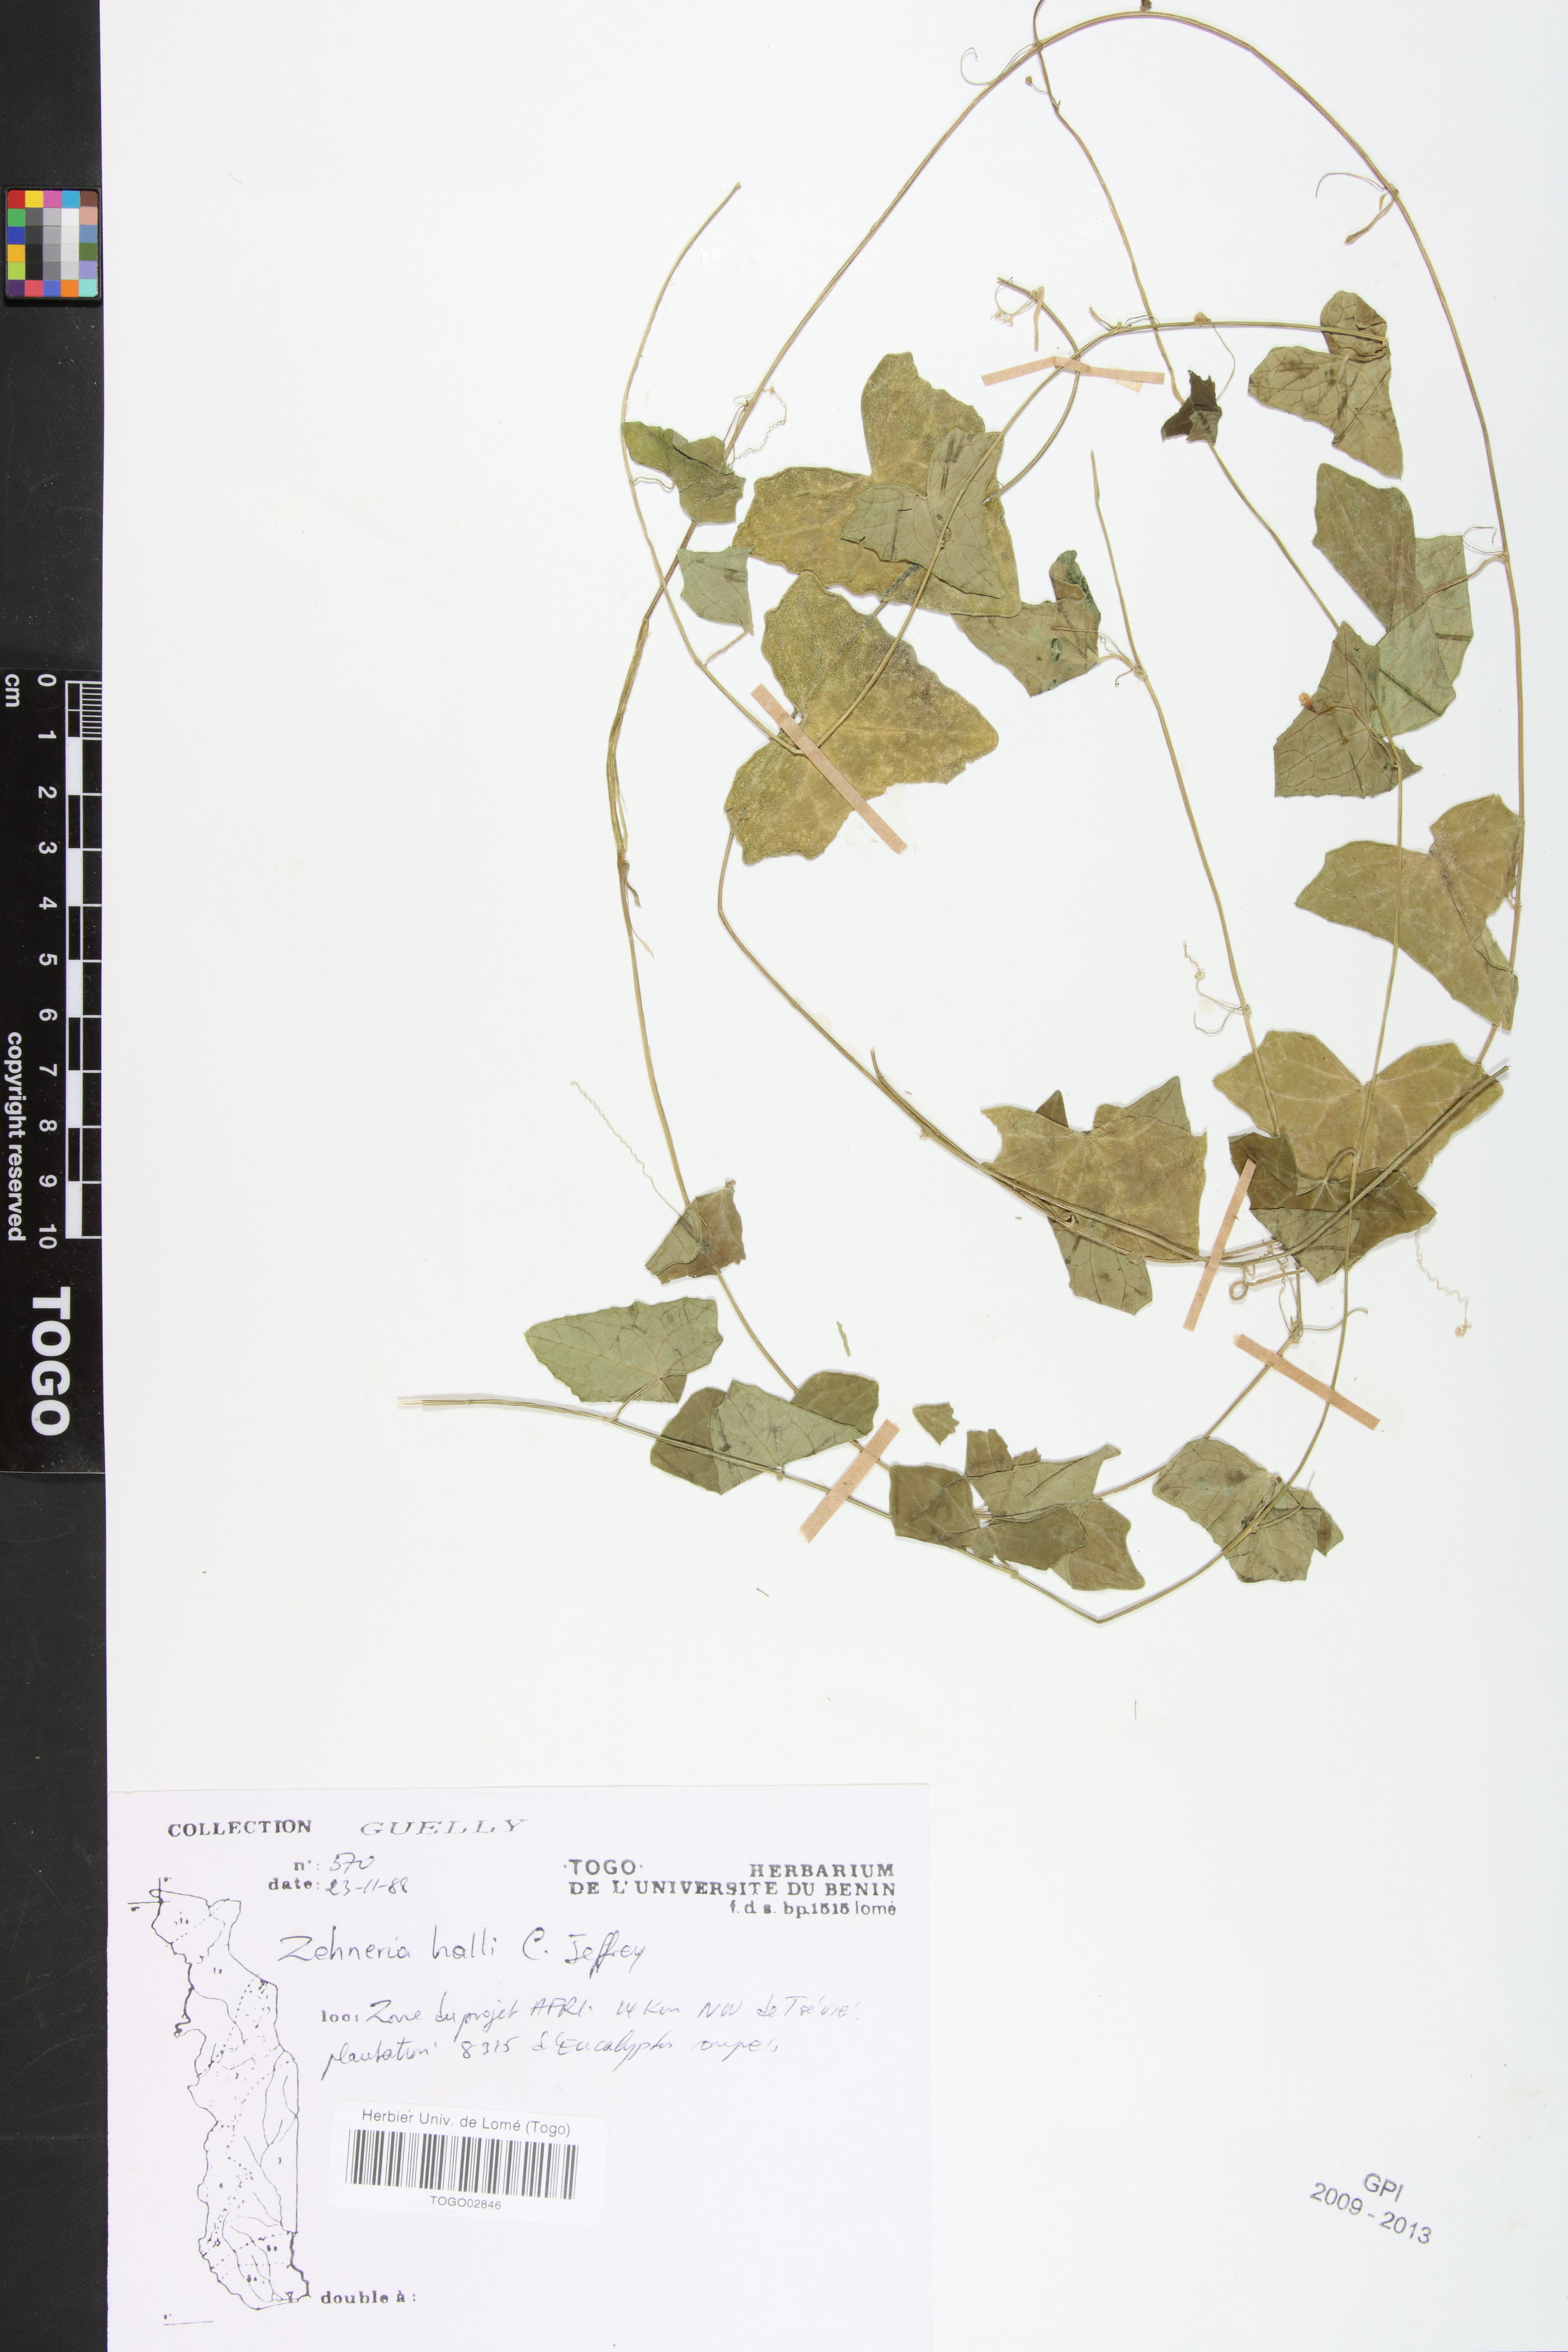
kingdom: Plantae
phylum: Tracheophyta
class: Magnoliopsida
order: Cucurbitales
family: Cucurbitaceae
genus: Zehneria
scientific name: Zehneria hallii
